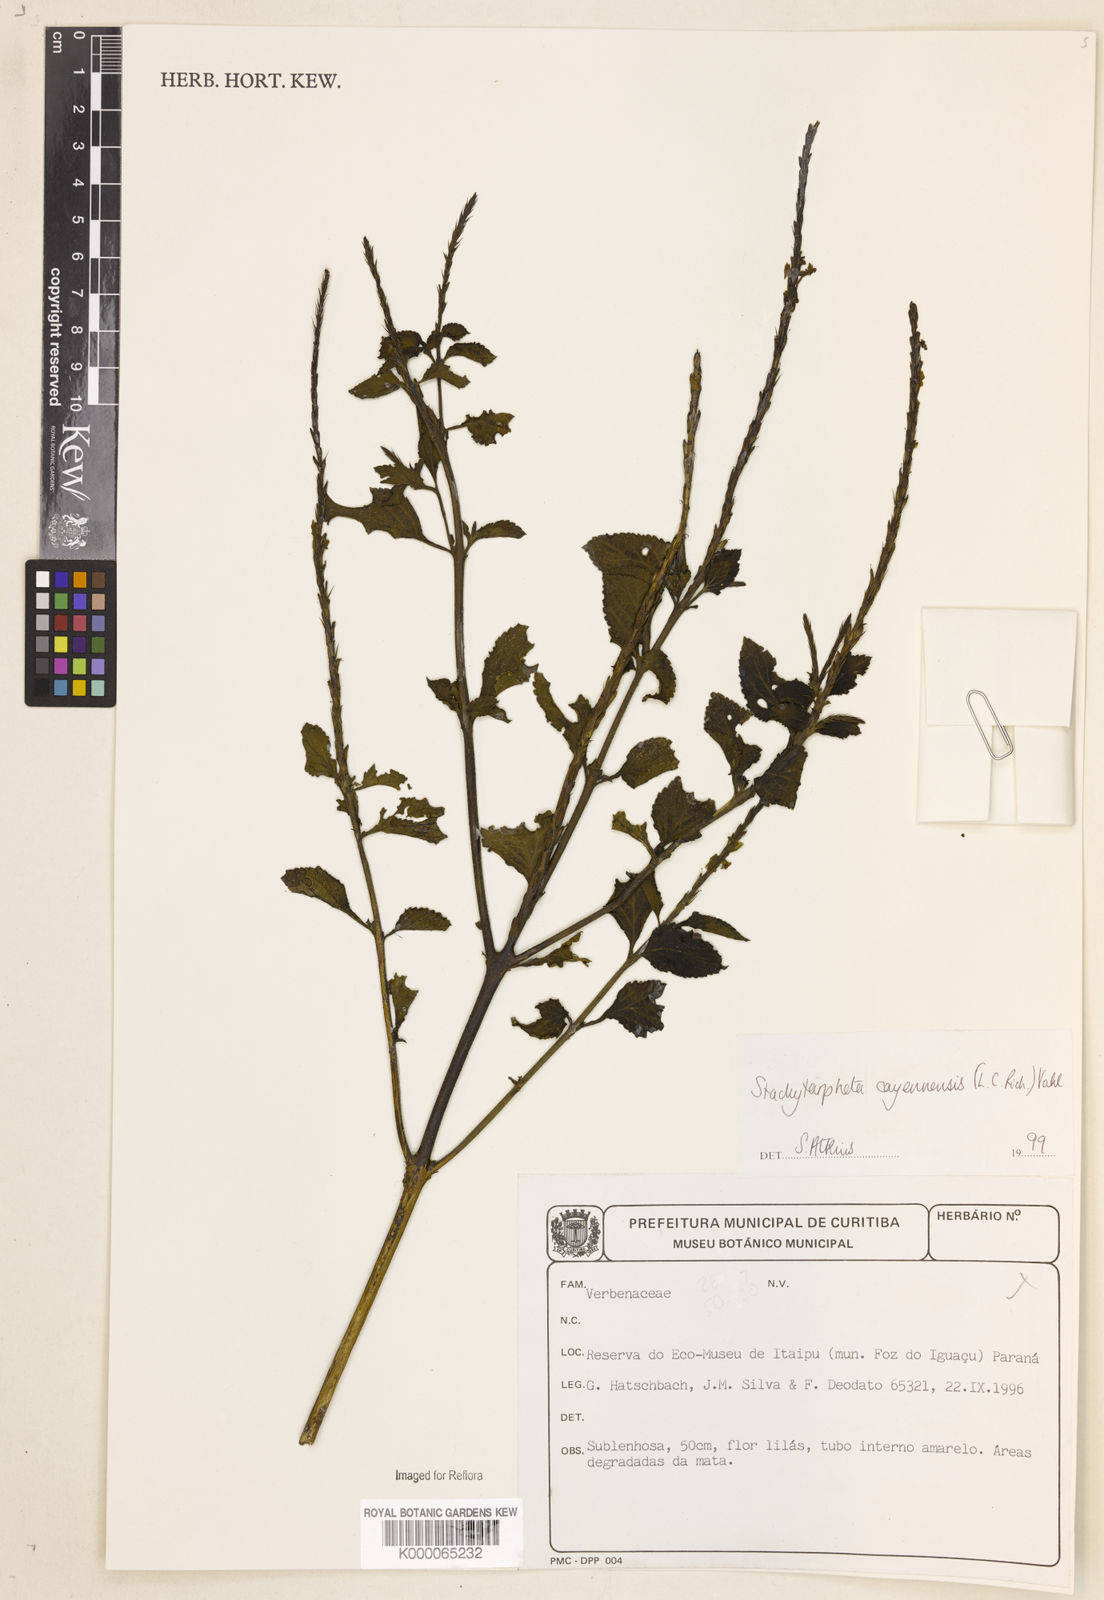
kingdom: Plantae
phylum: Tracheophyta
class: Magnoliopsida
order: Lamiales
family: Verbenaceae
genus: Stachytarpheta
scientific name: Stachytarpheta cayennensis
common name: Cayenne porterweed
